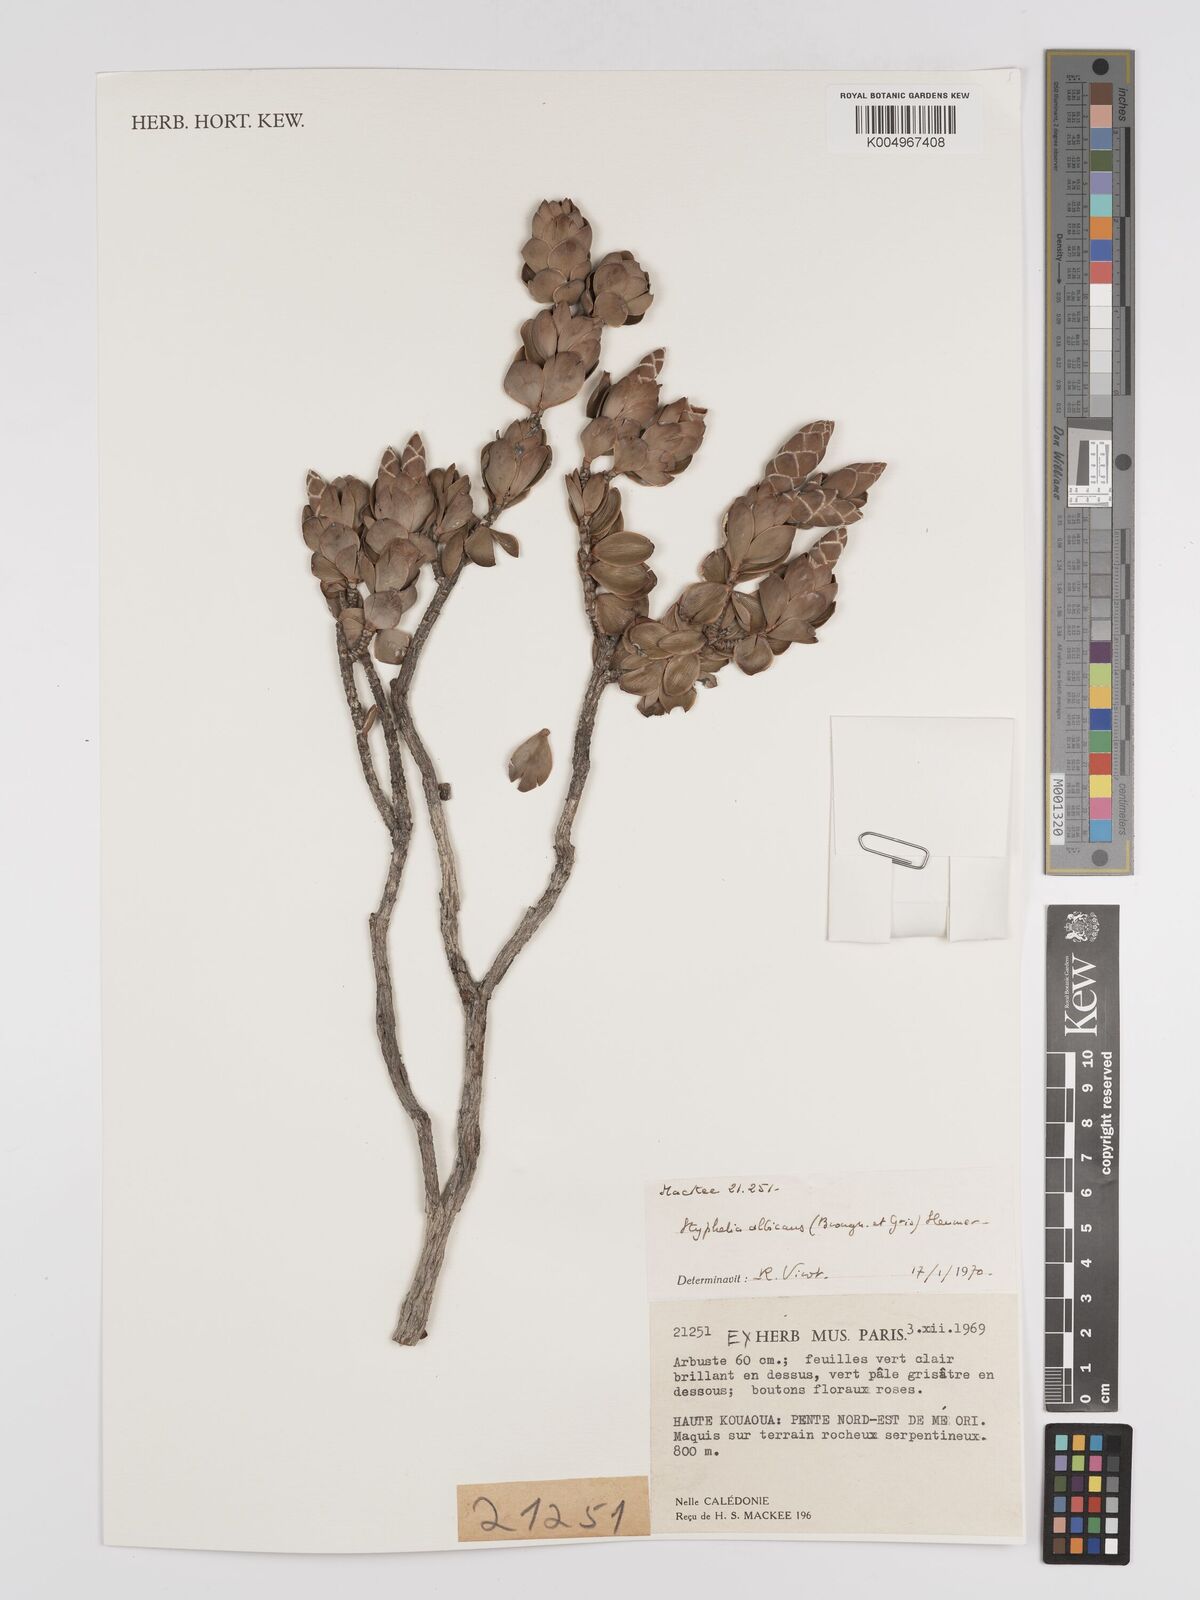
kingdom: Plantae
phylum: Tracheophyta
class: Magnoliopsida
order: Ericales
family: Ericaceae
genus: Cyathopsis
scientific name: Cyathopsis albicans
